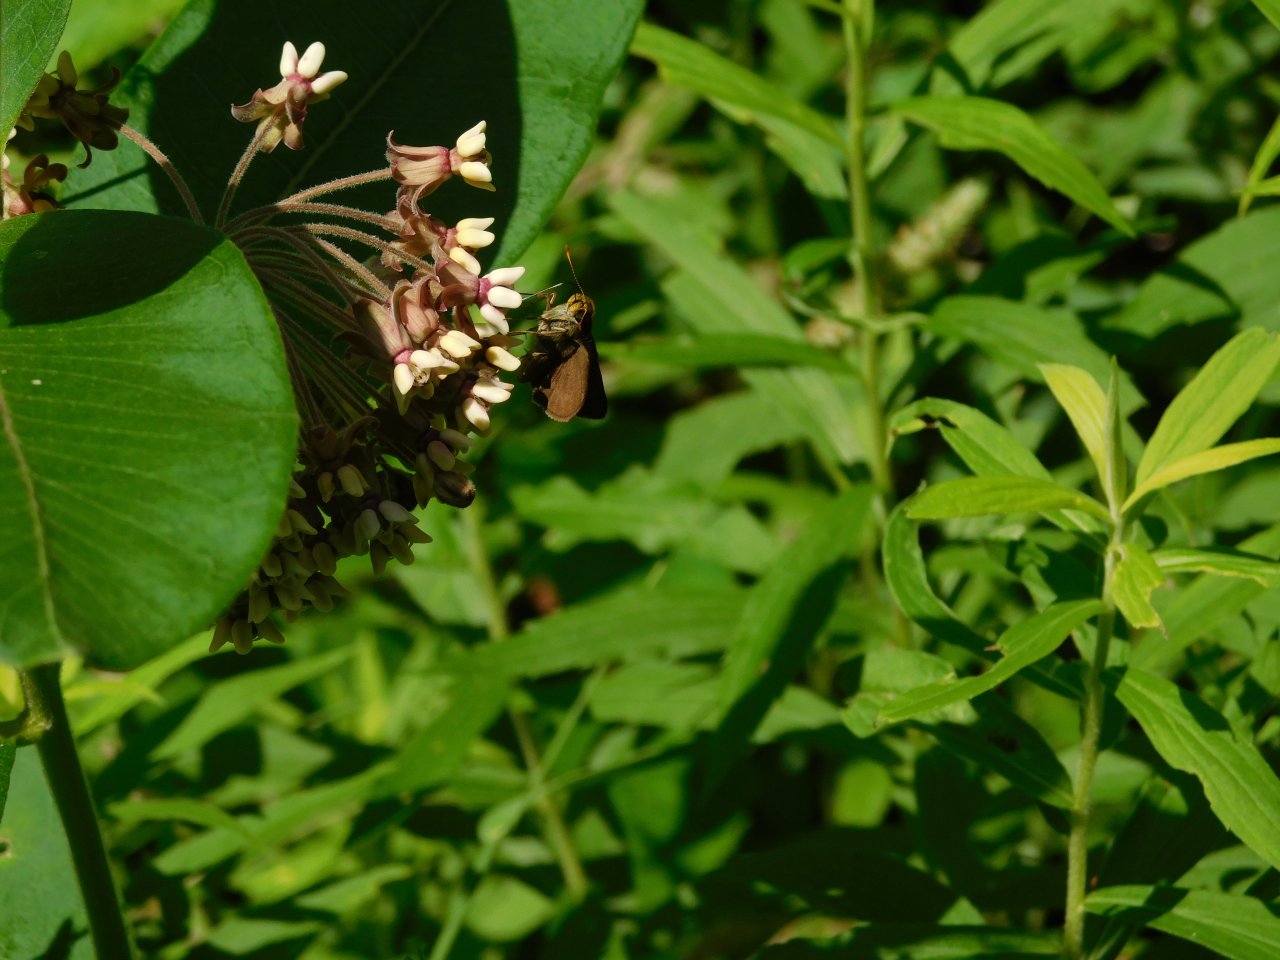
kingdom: Animalia
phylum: Arthropoda
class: Insecta
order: Lepidoptera
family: Hesperiidae
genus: Euphyes
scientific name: Euphyes vestris
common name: Dun Skipper
